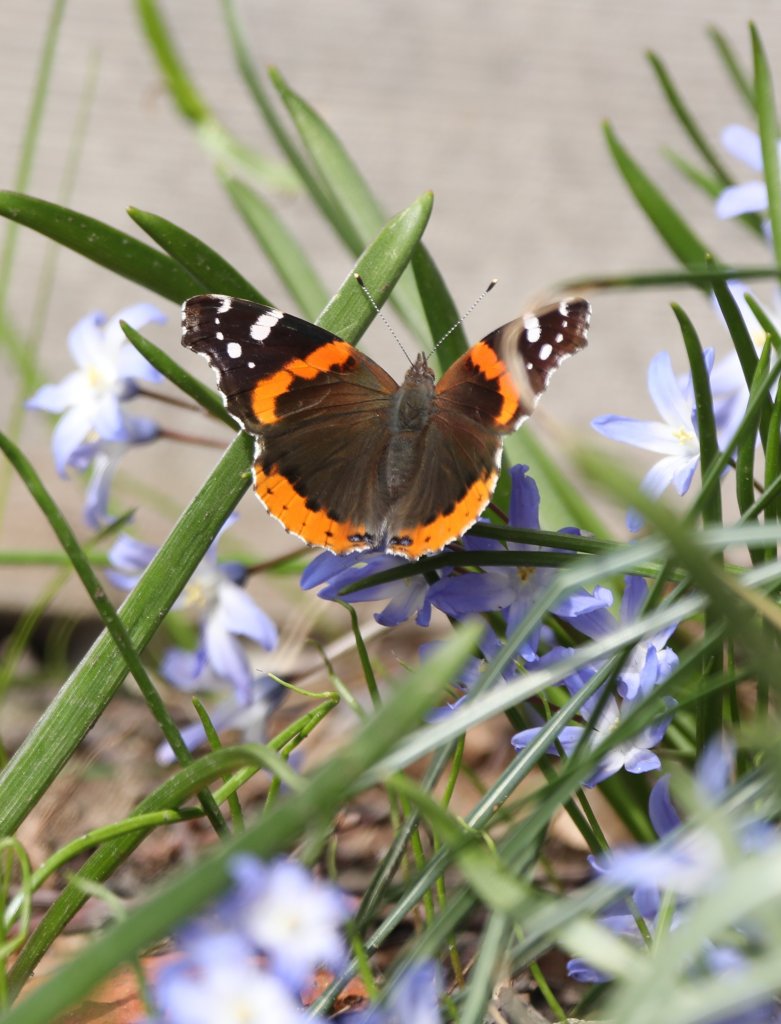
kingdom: Animalia
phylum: Arthropoda
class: Insecta
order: Lepidoptera
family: Nymphalidae
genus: Vanessa
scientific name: Vanessa atalanta
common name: Red Admiral
